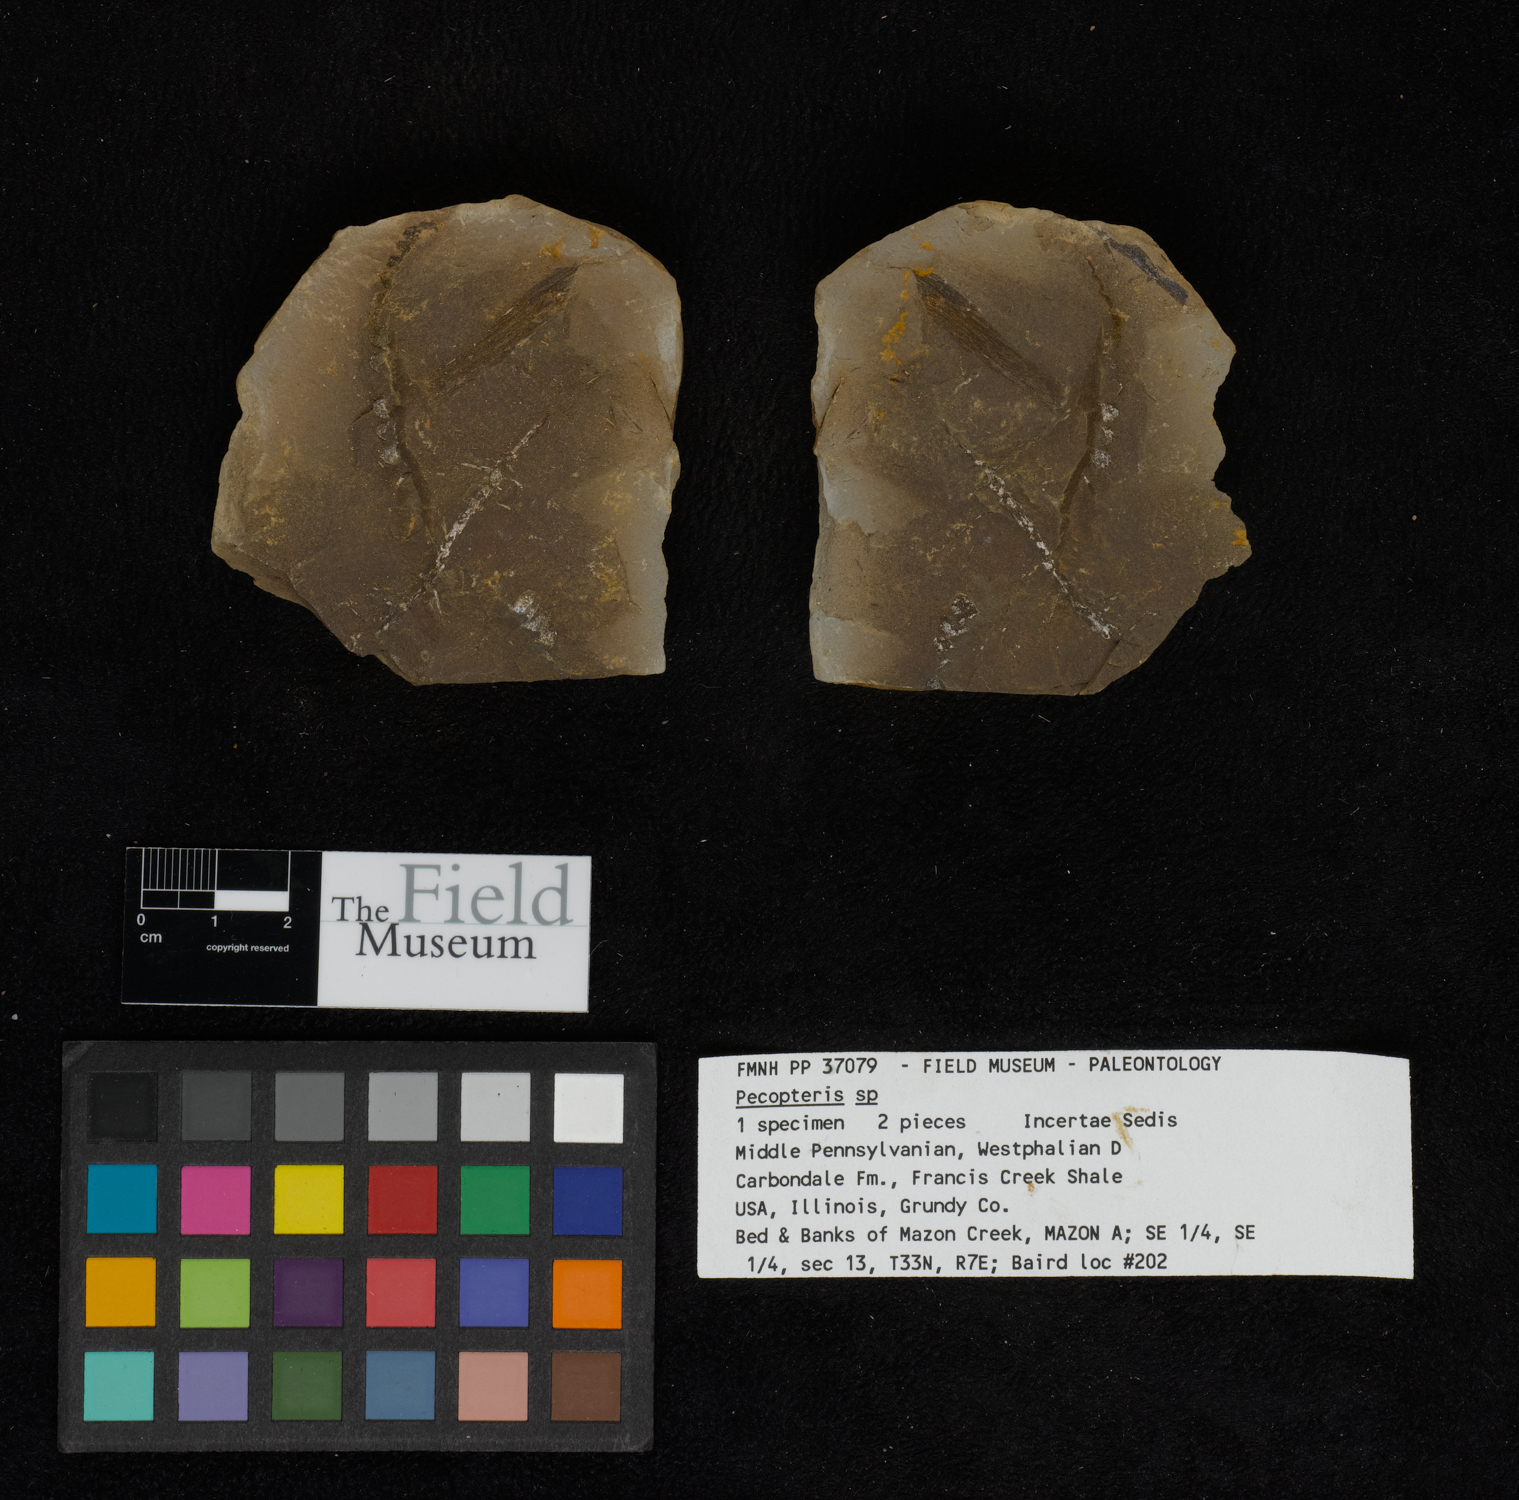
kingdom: Plantae
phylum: Tracheophyta
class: Polypodiopsida
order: Marattiales
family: Asterothecaceae
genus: Pecopteris
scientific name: Pecopteris
